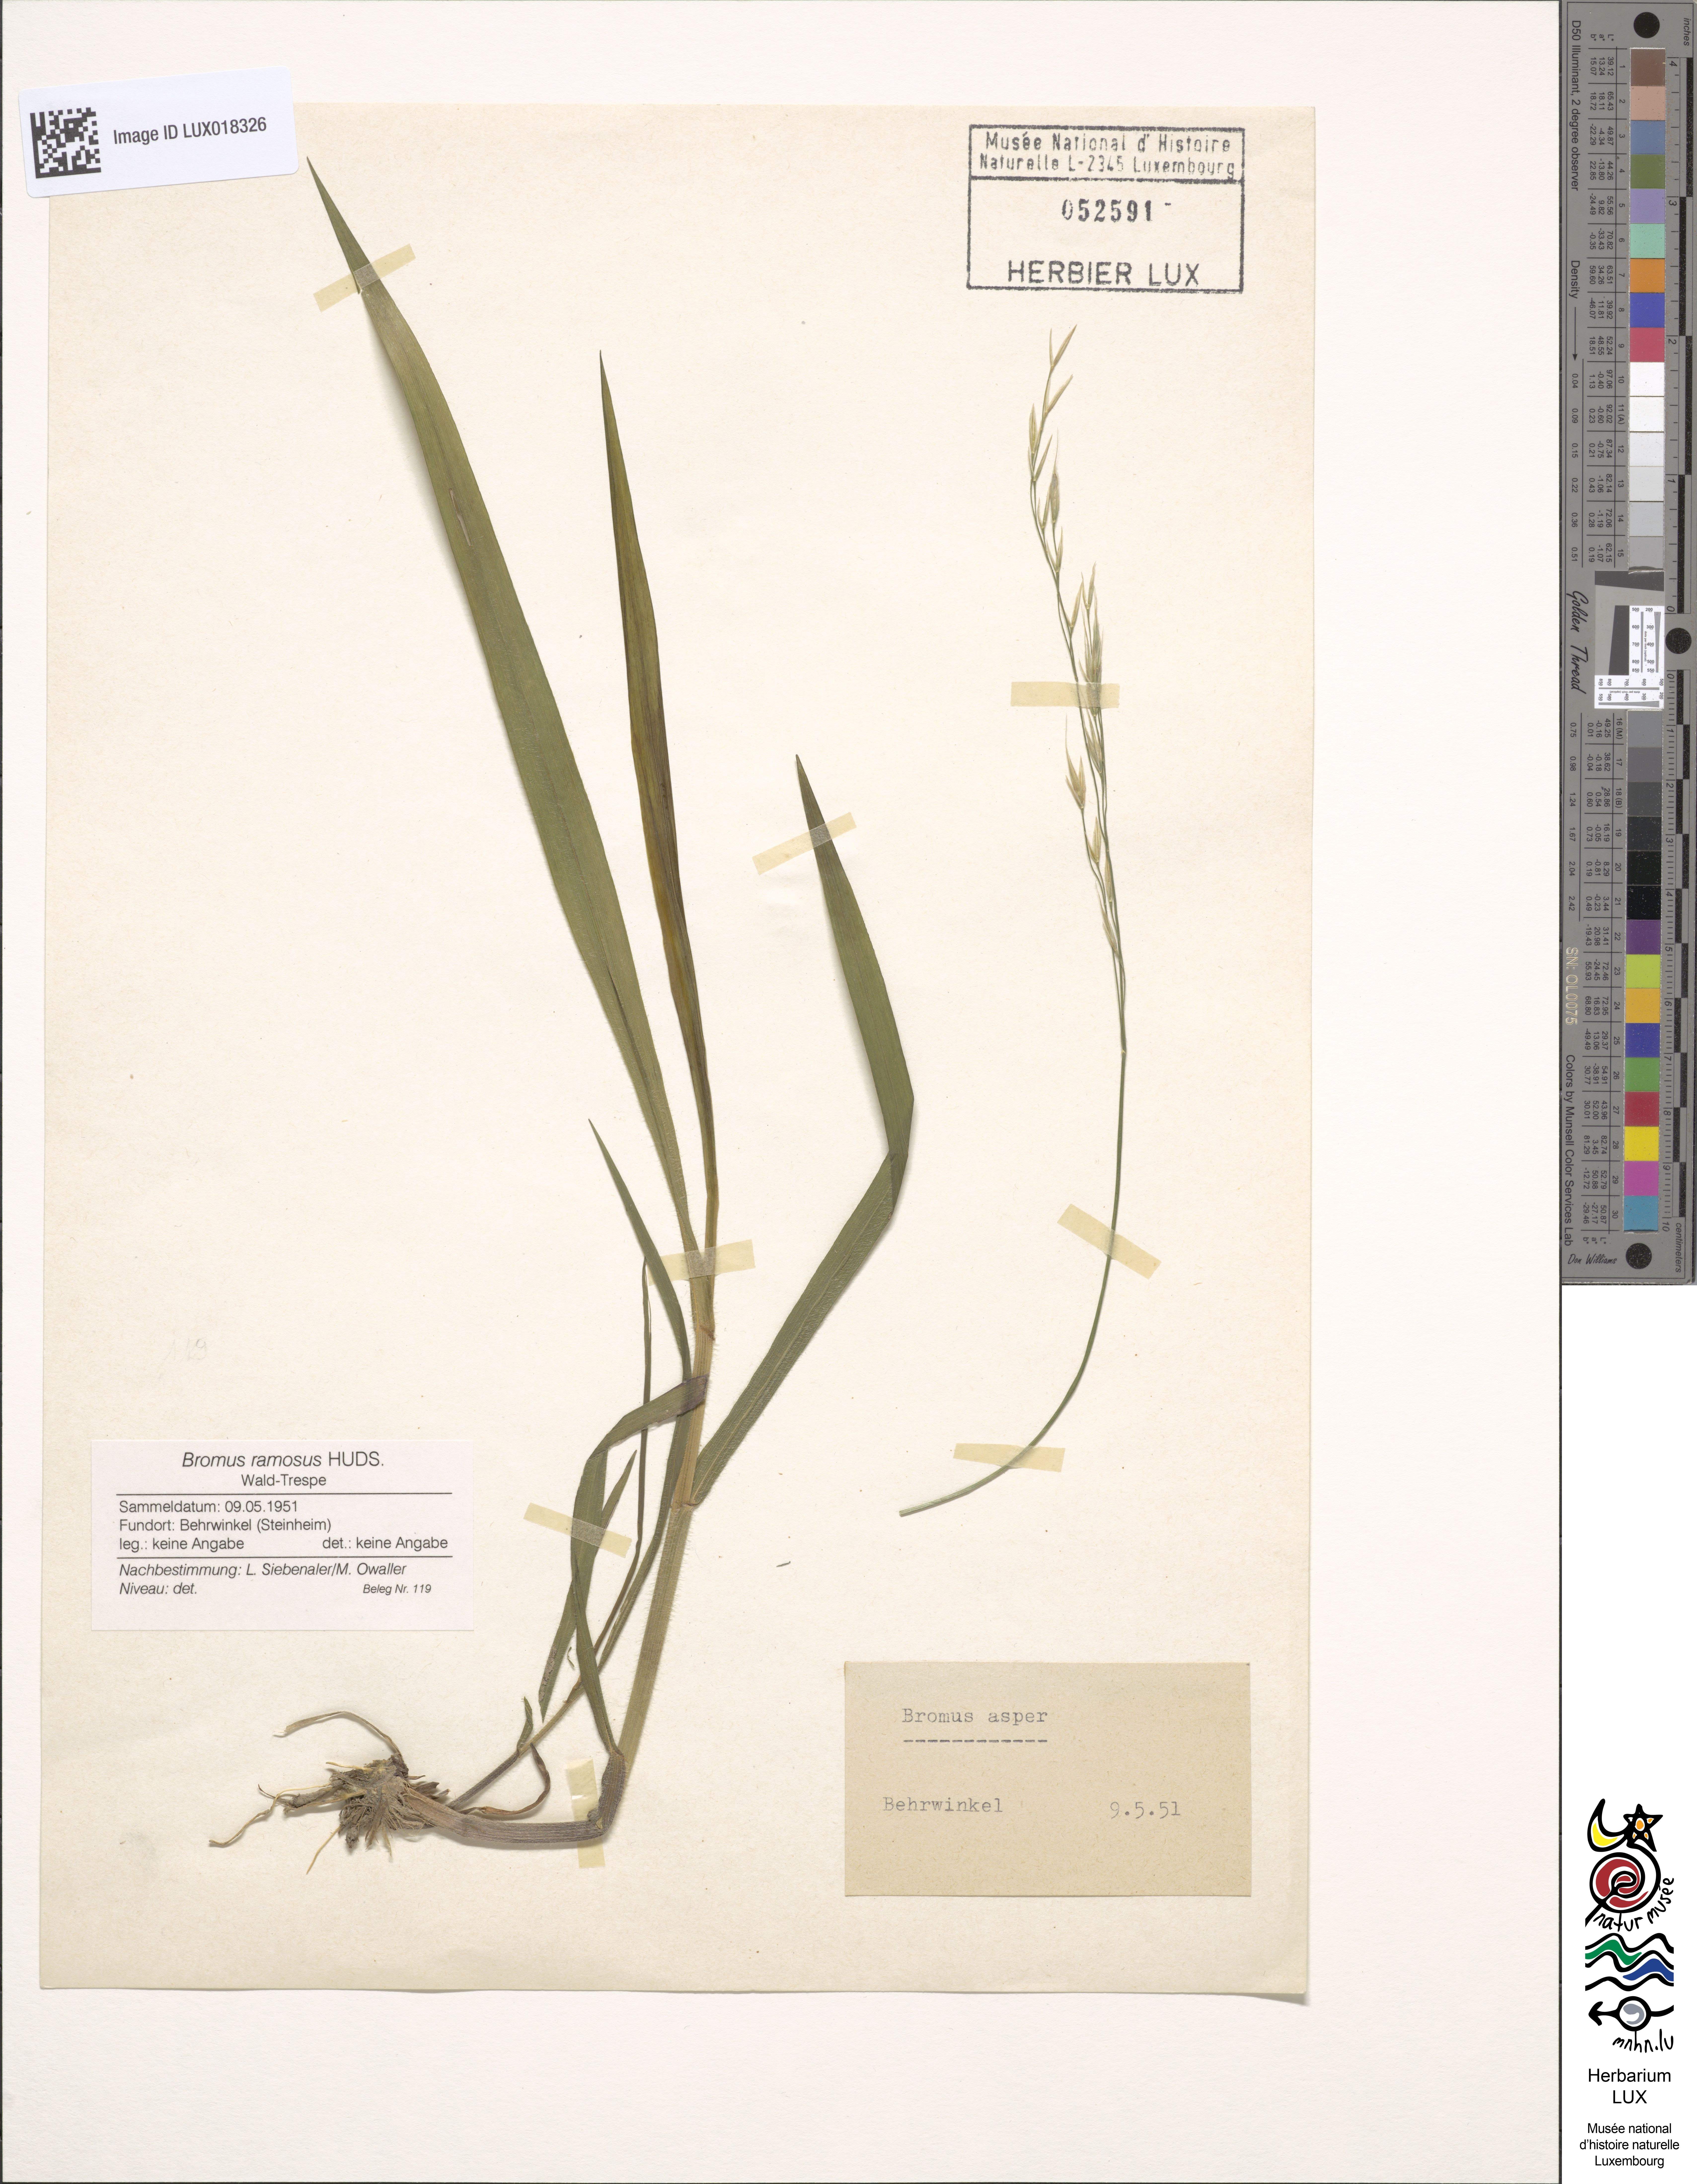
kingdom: Plantae
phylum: Tracheophyta
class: Liliopsida
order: Poales
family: Poaceae
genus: Bromus
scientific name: Bromus ramosus
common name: Hairy brome
